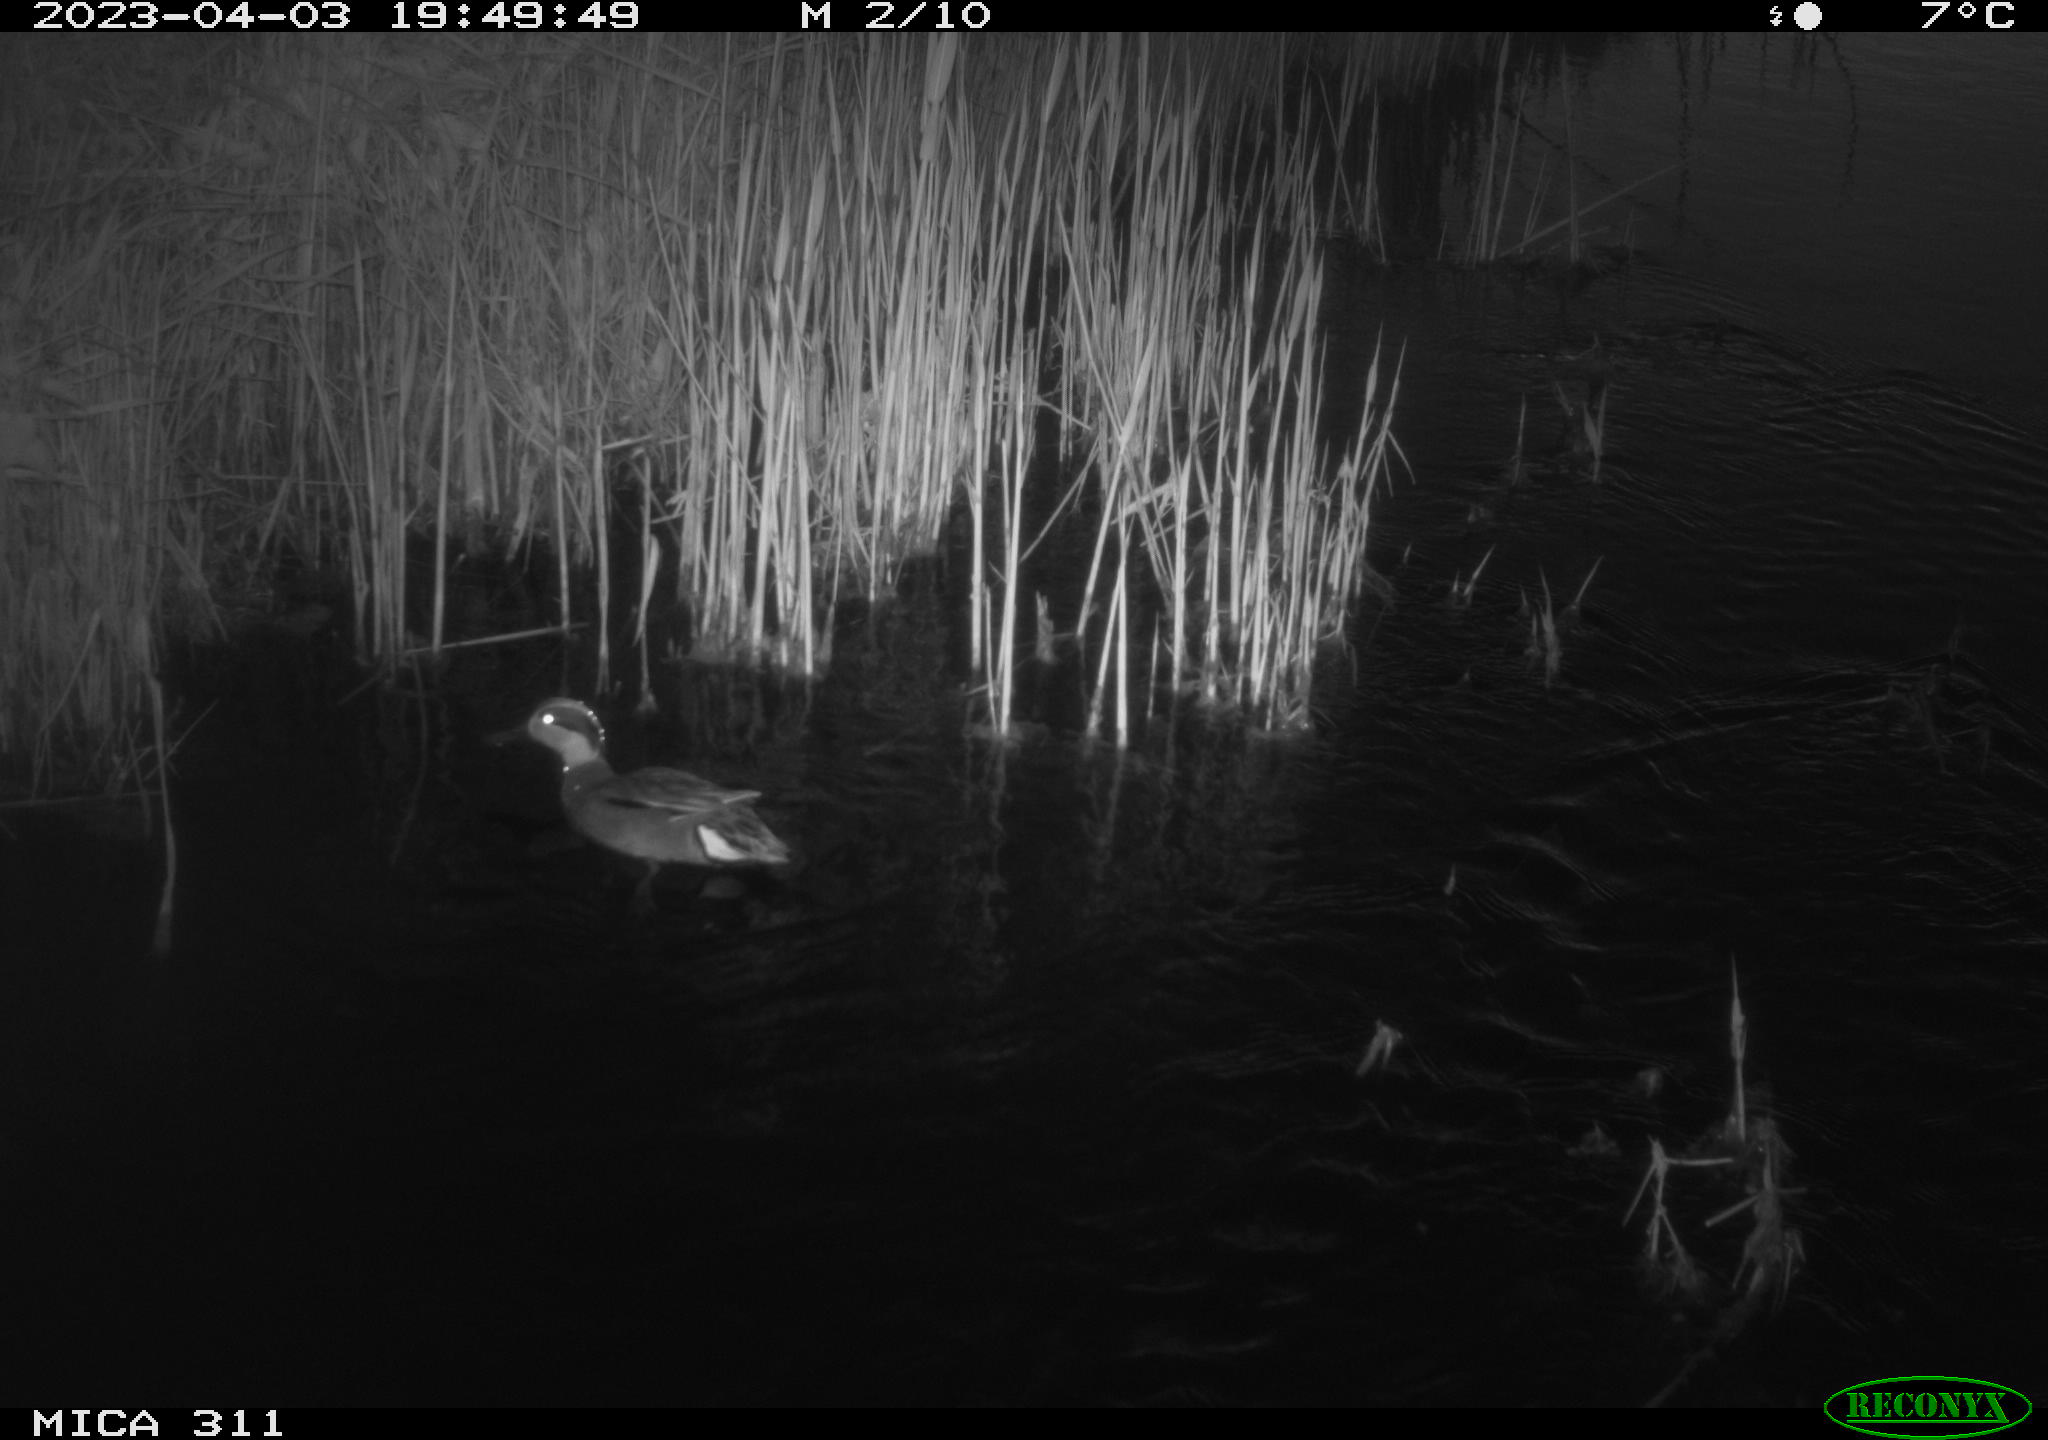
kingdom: Animalia
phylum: Chordata
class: Aves
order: Anseriformes
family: Anatidae
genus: Anas
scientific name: Anas
